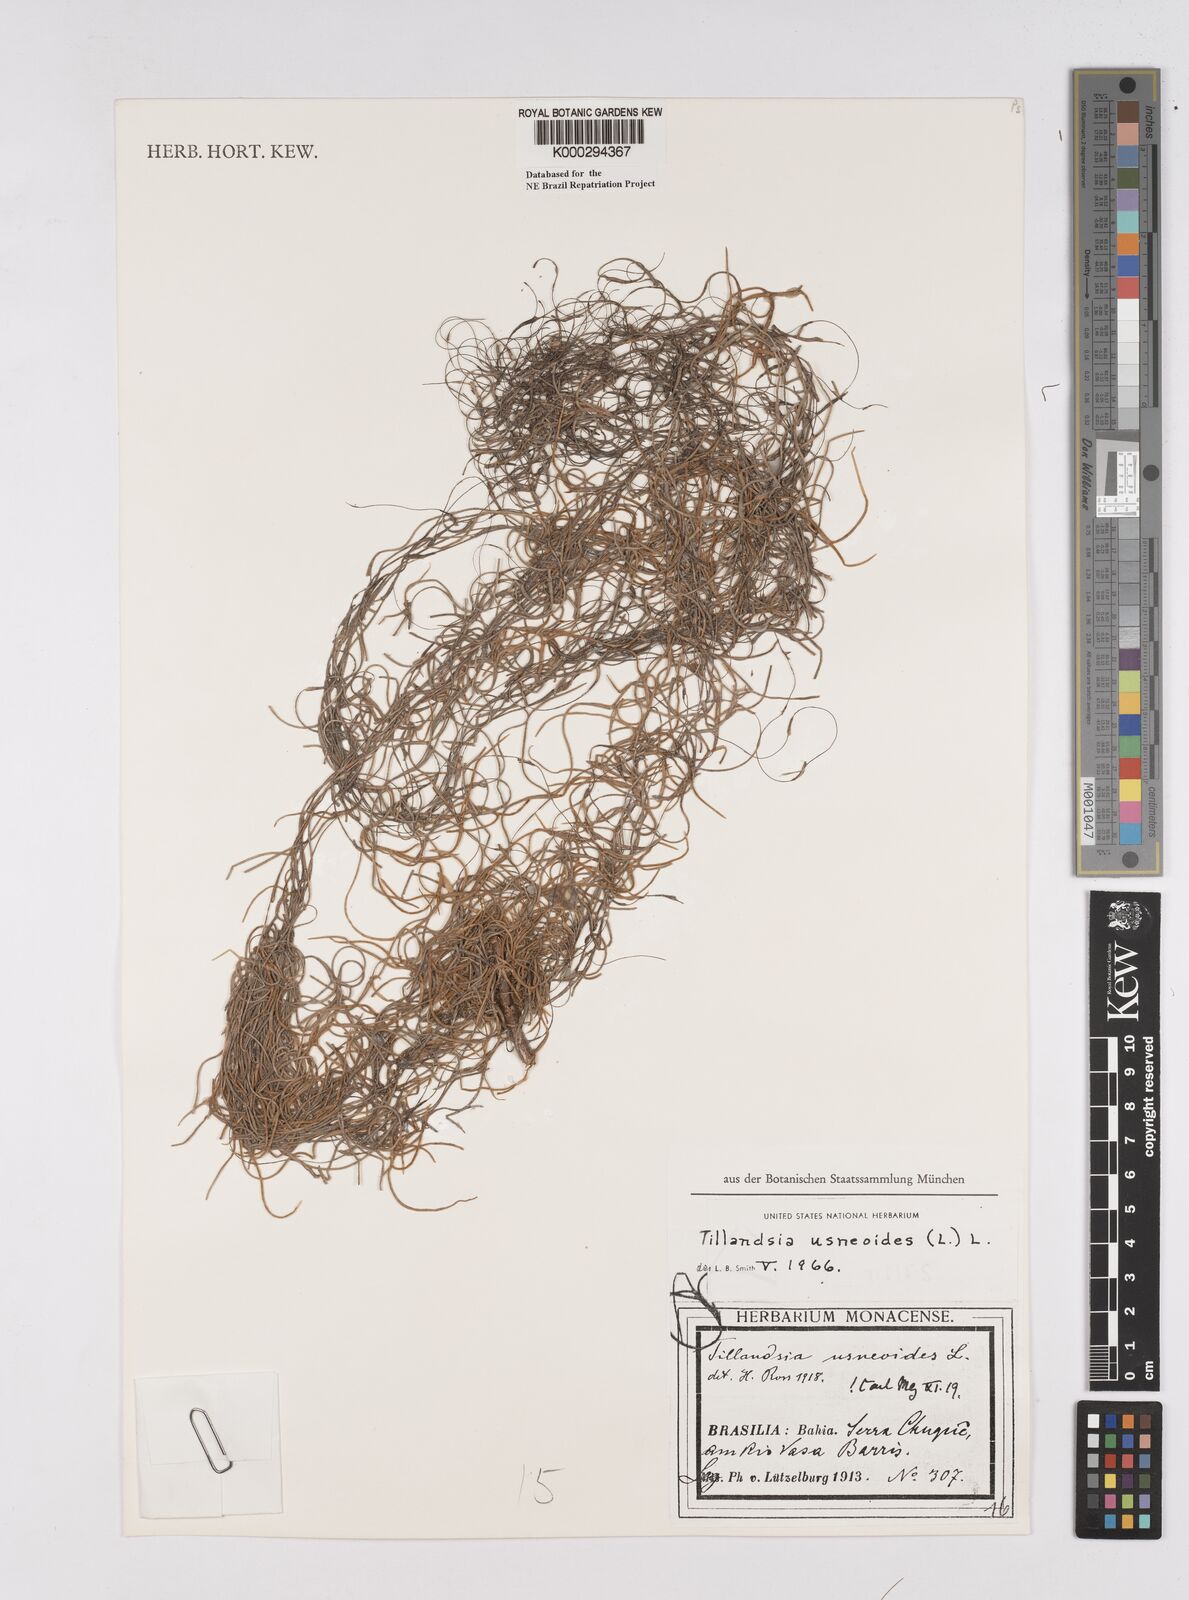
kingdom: Plantae
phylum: Tracheophyta
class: Liliopsida
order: Poales
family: Bromeliaceae
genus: Tillandsia
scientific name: Tillandsia usneoides
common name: Spanish moss
